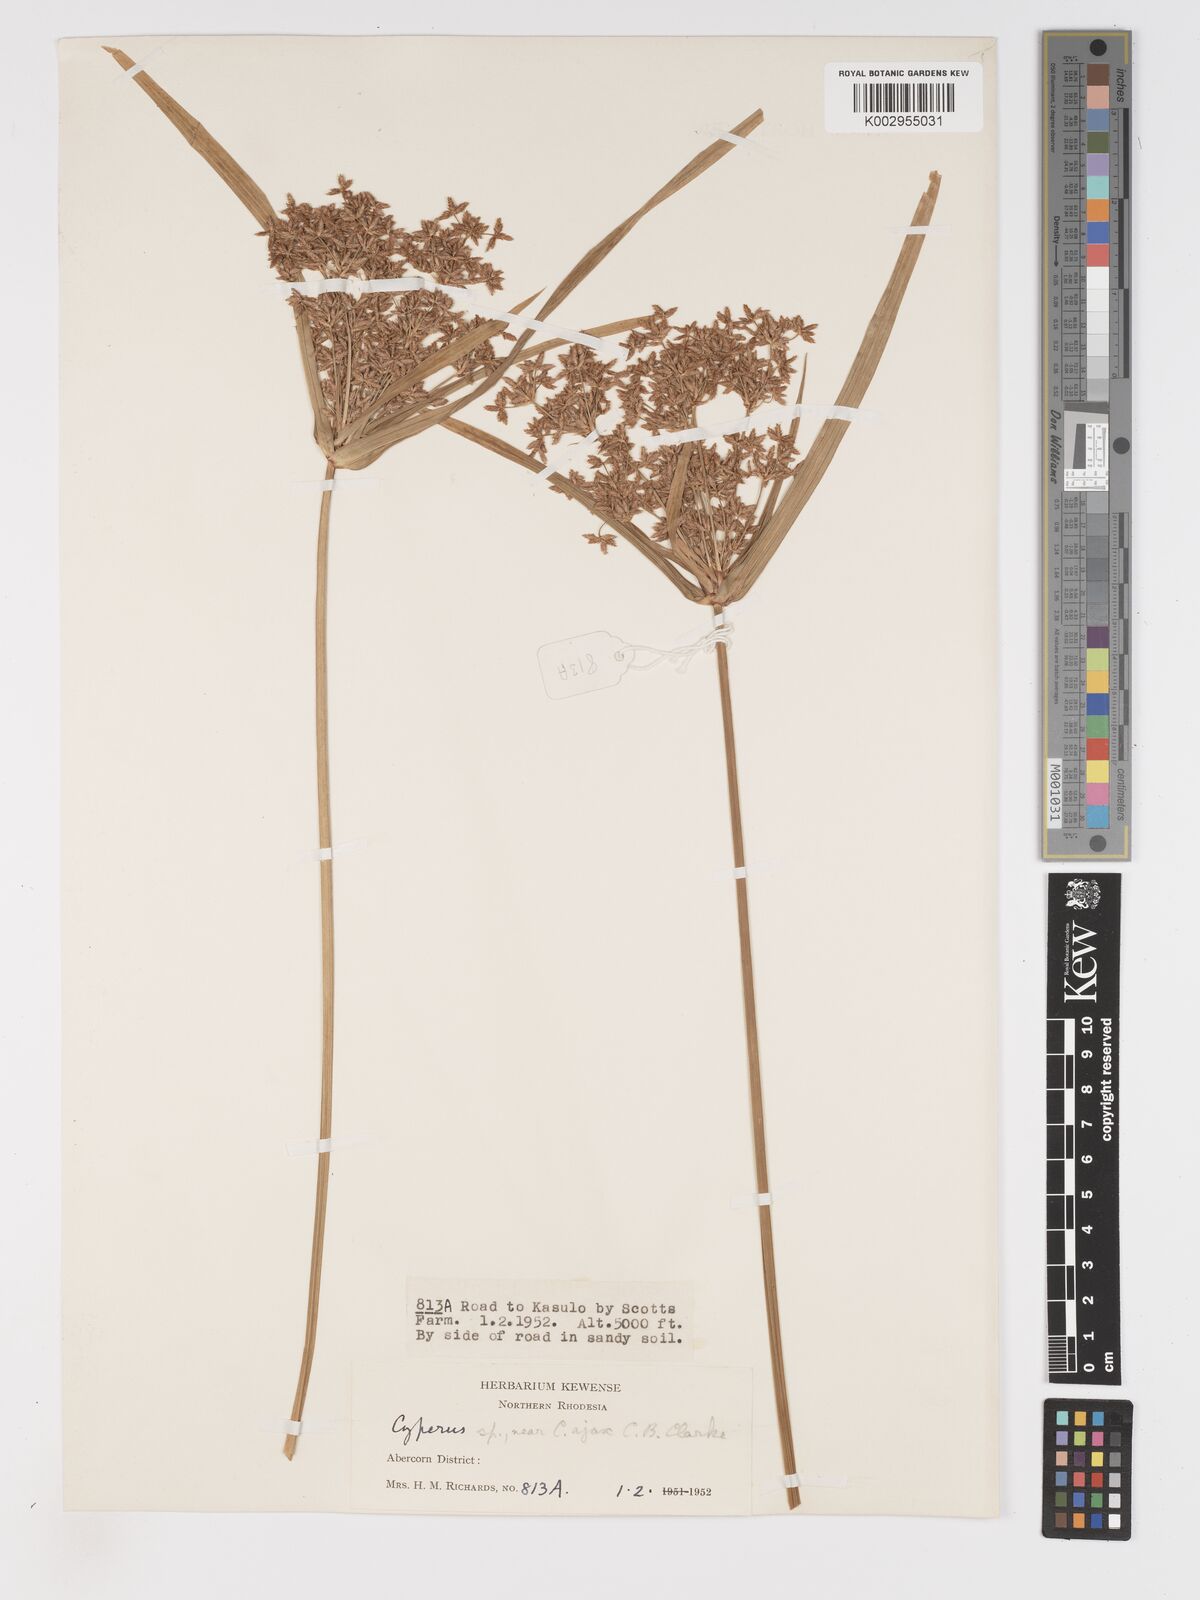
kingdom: Plantae
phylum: Tracheophyta
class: Liliopsida
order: Poales
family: Cyperaceae
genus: Cyperus
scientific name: Cyperus haspan
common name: Haspan flatsedge
